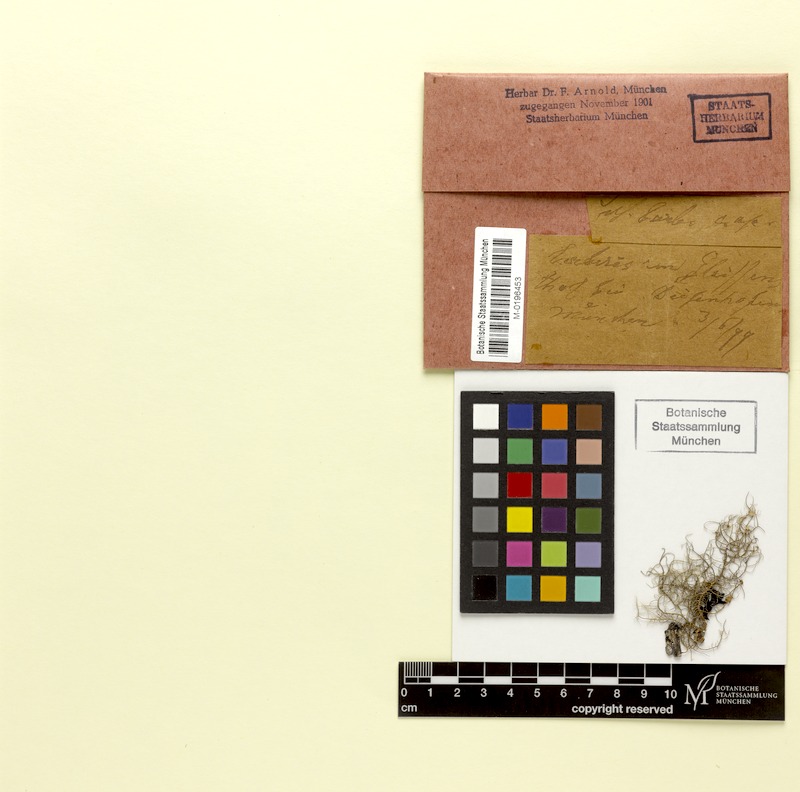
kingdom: Fungi
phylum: Ascomycota
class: Lecanoromycetes
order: Lecanorales
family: Parmeliaceae
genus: Usnea
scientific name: Usnea barbata
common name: Old man's beard lichen
